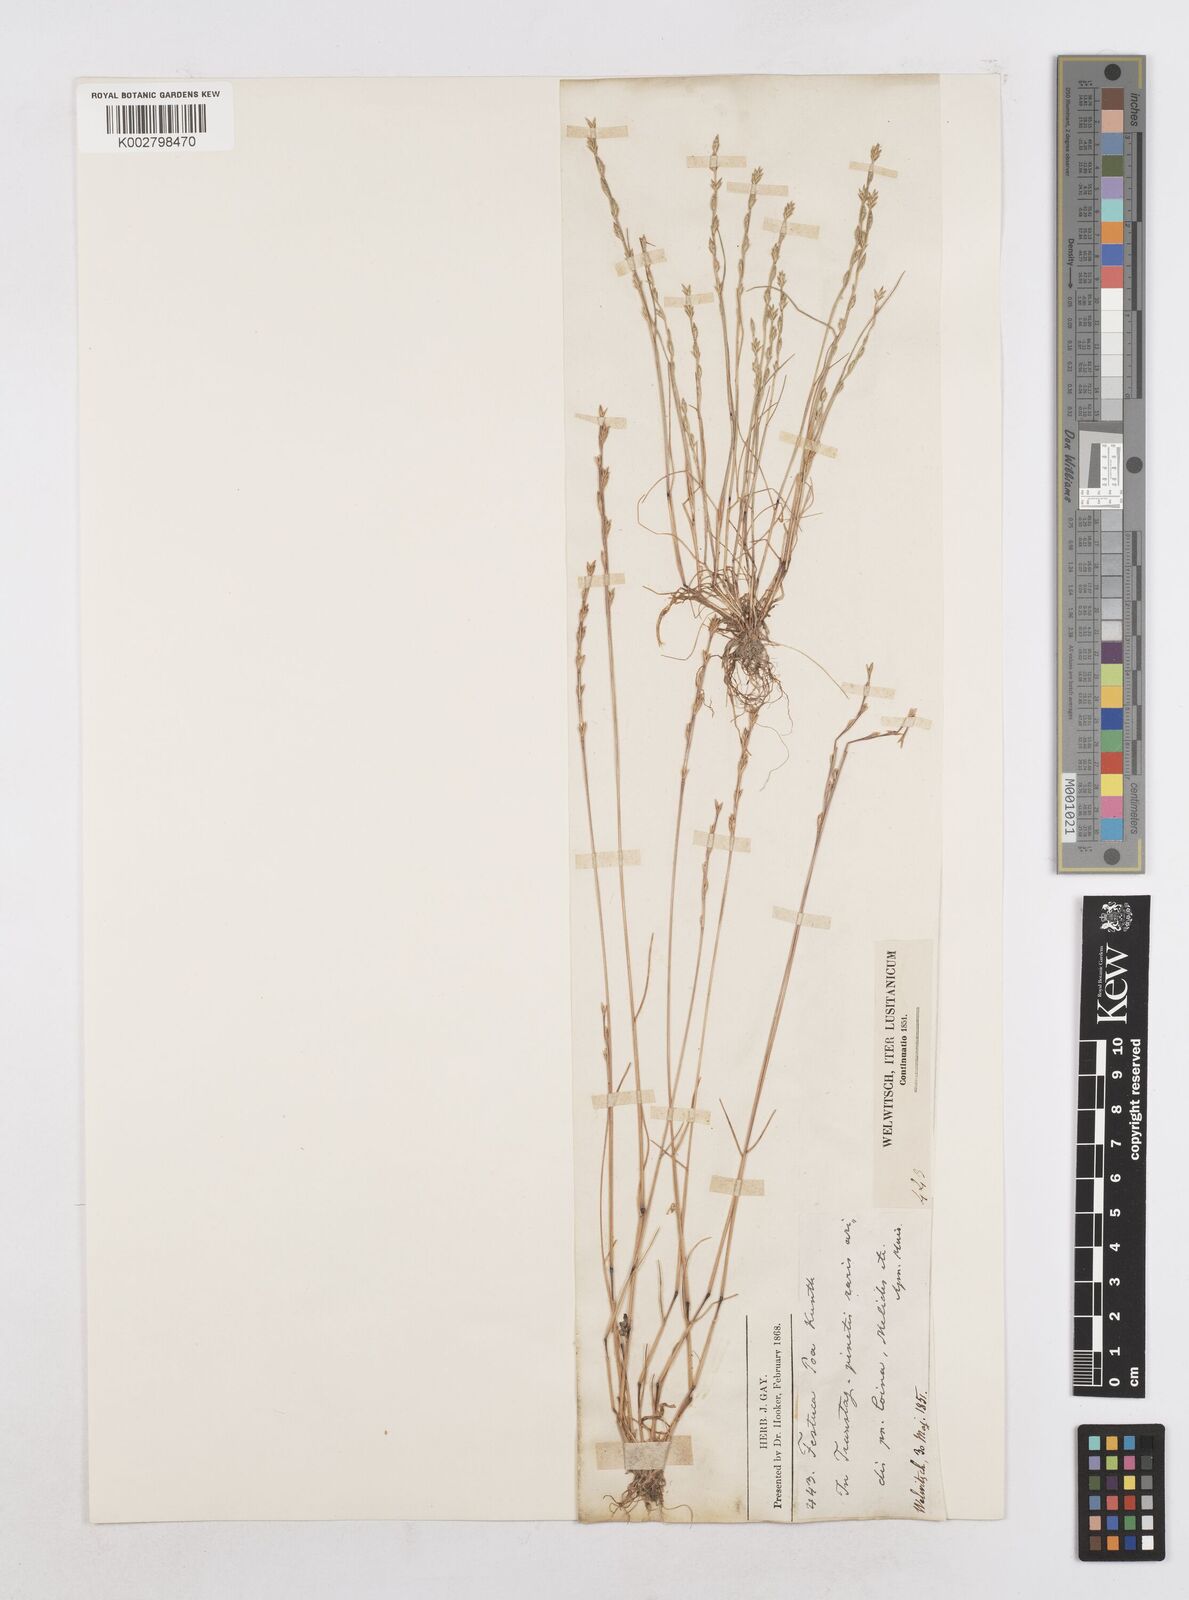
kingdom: Plantae
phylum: Tracheophyta
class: Liliopsida
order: Poales
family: Poaceae
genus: Festuca
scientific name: Festuca lachenalii
